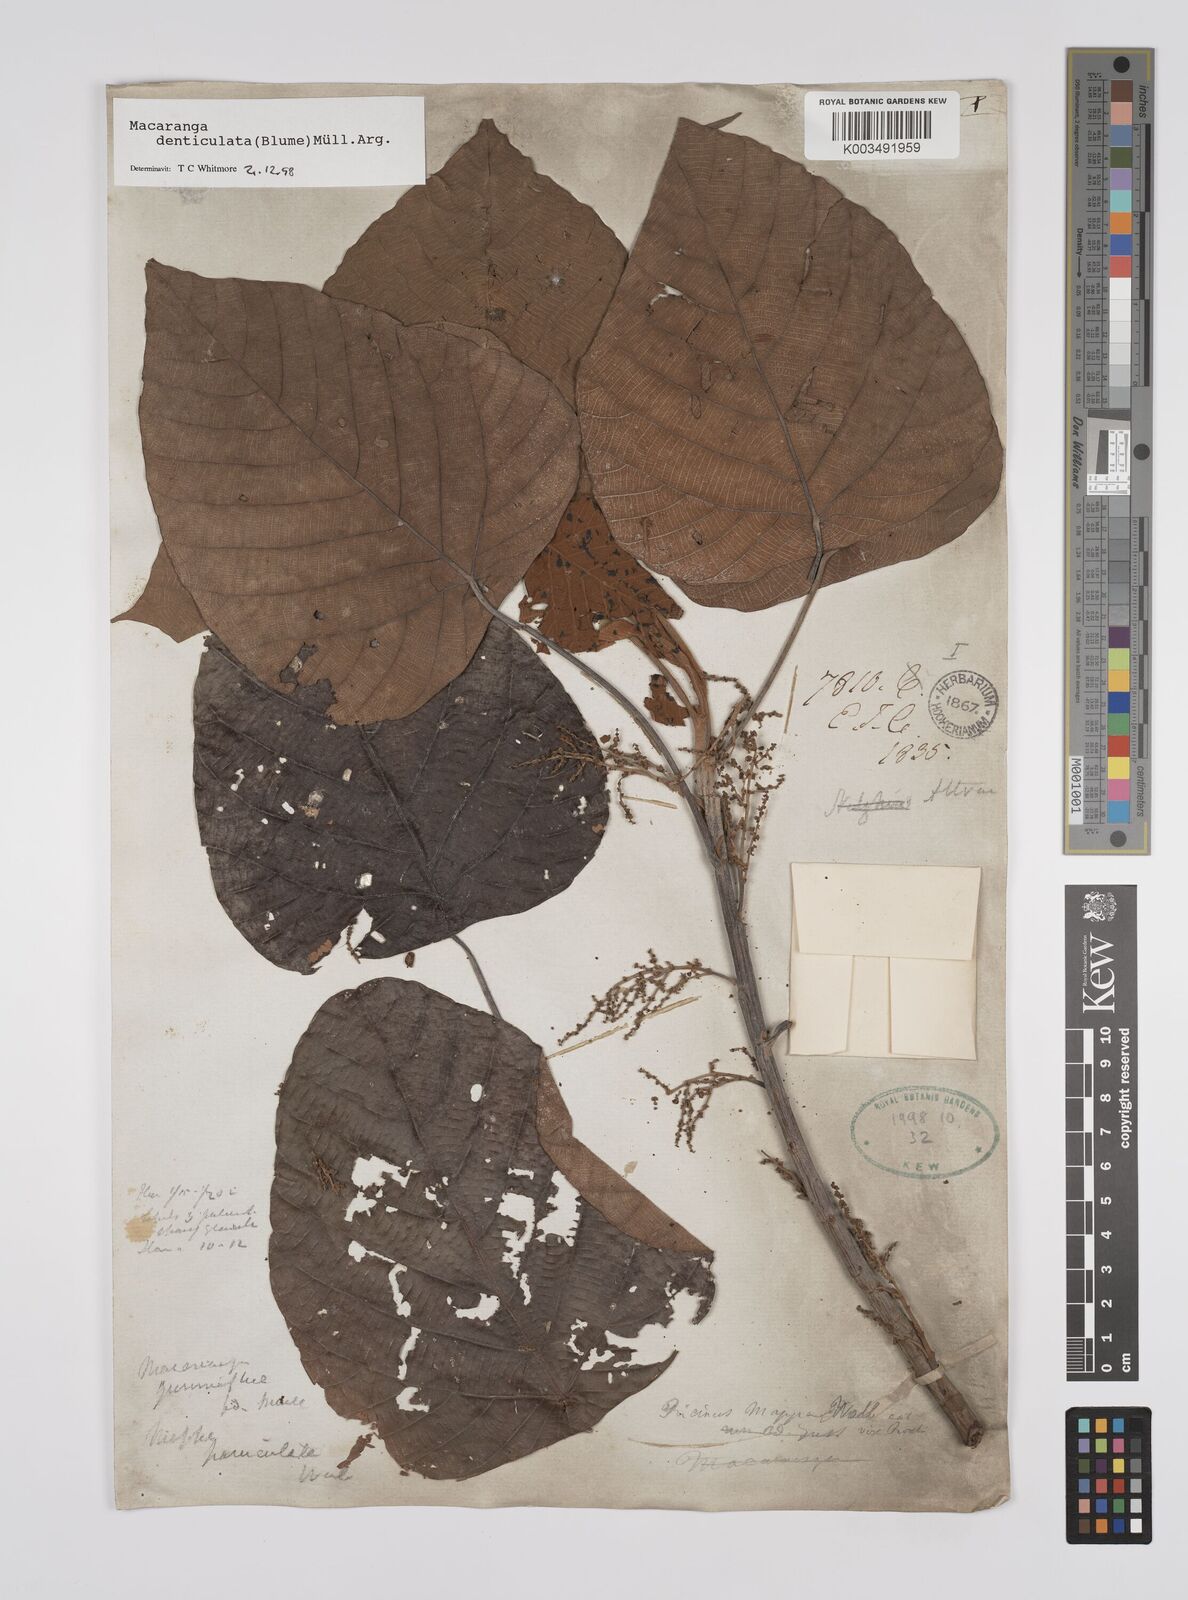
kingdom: Plantae
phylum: Tracheophyta
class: Magnoliopsida
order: Malpighiales
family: Euphorbiaceae
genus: Macaranga
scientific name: Macaranga denticulata
